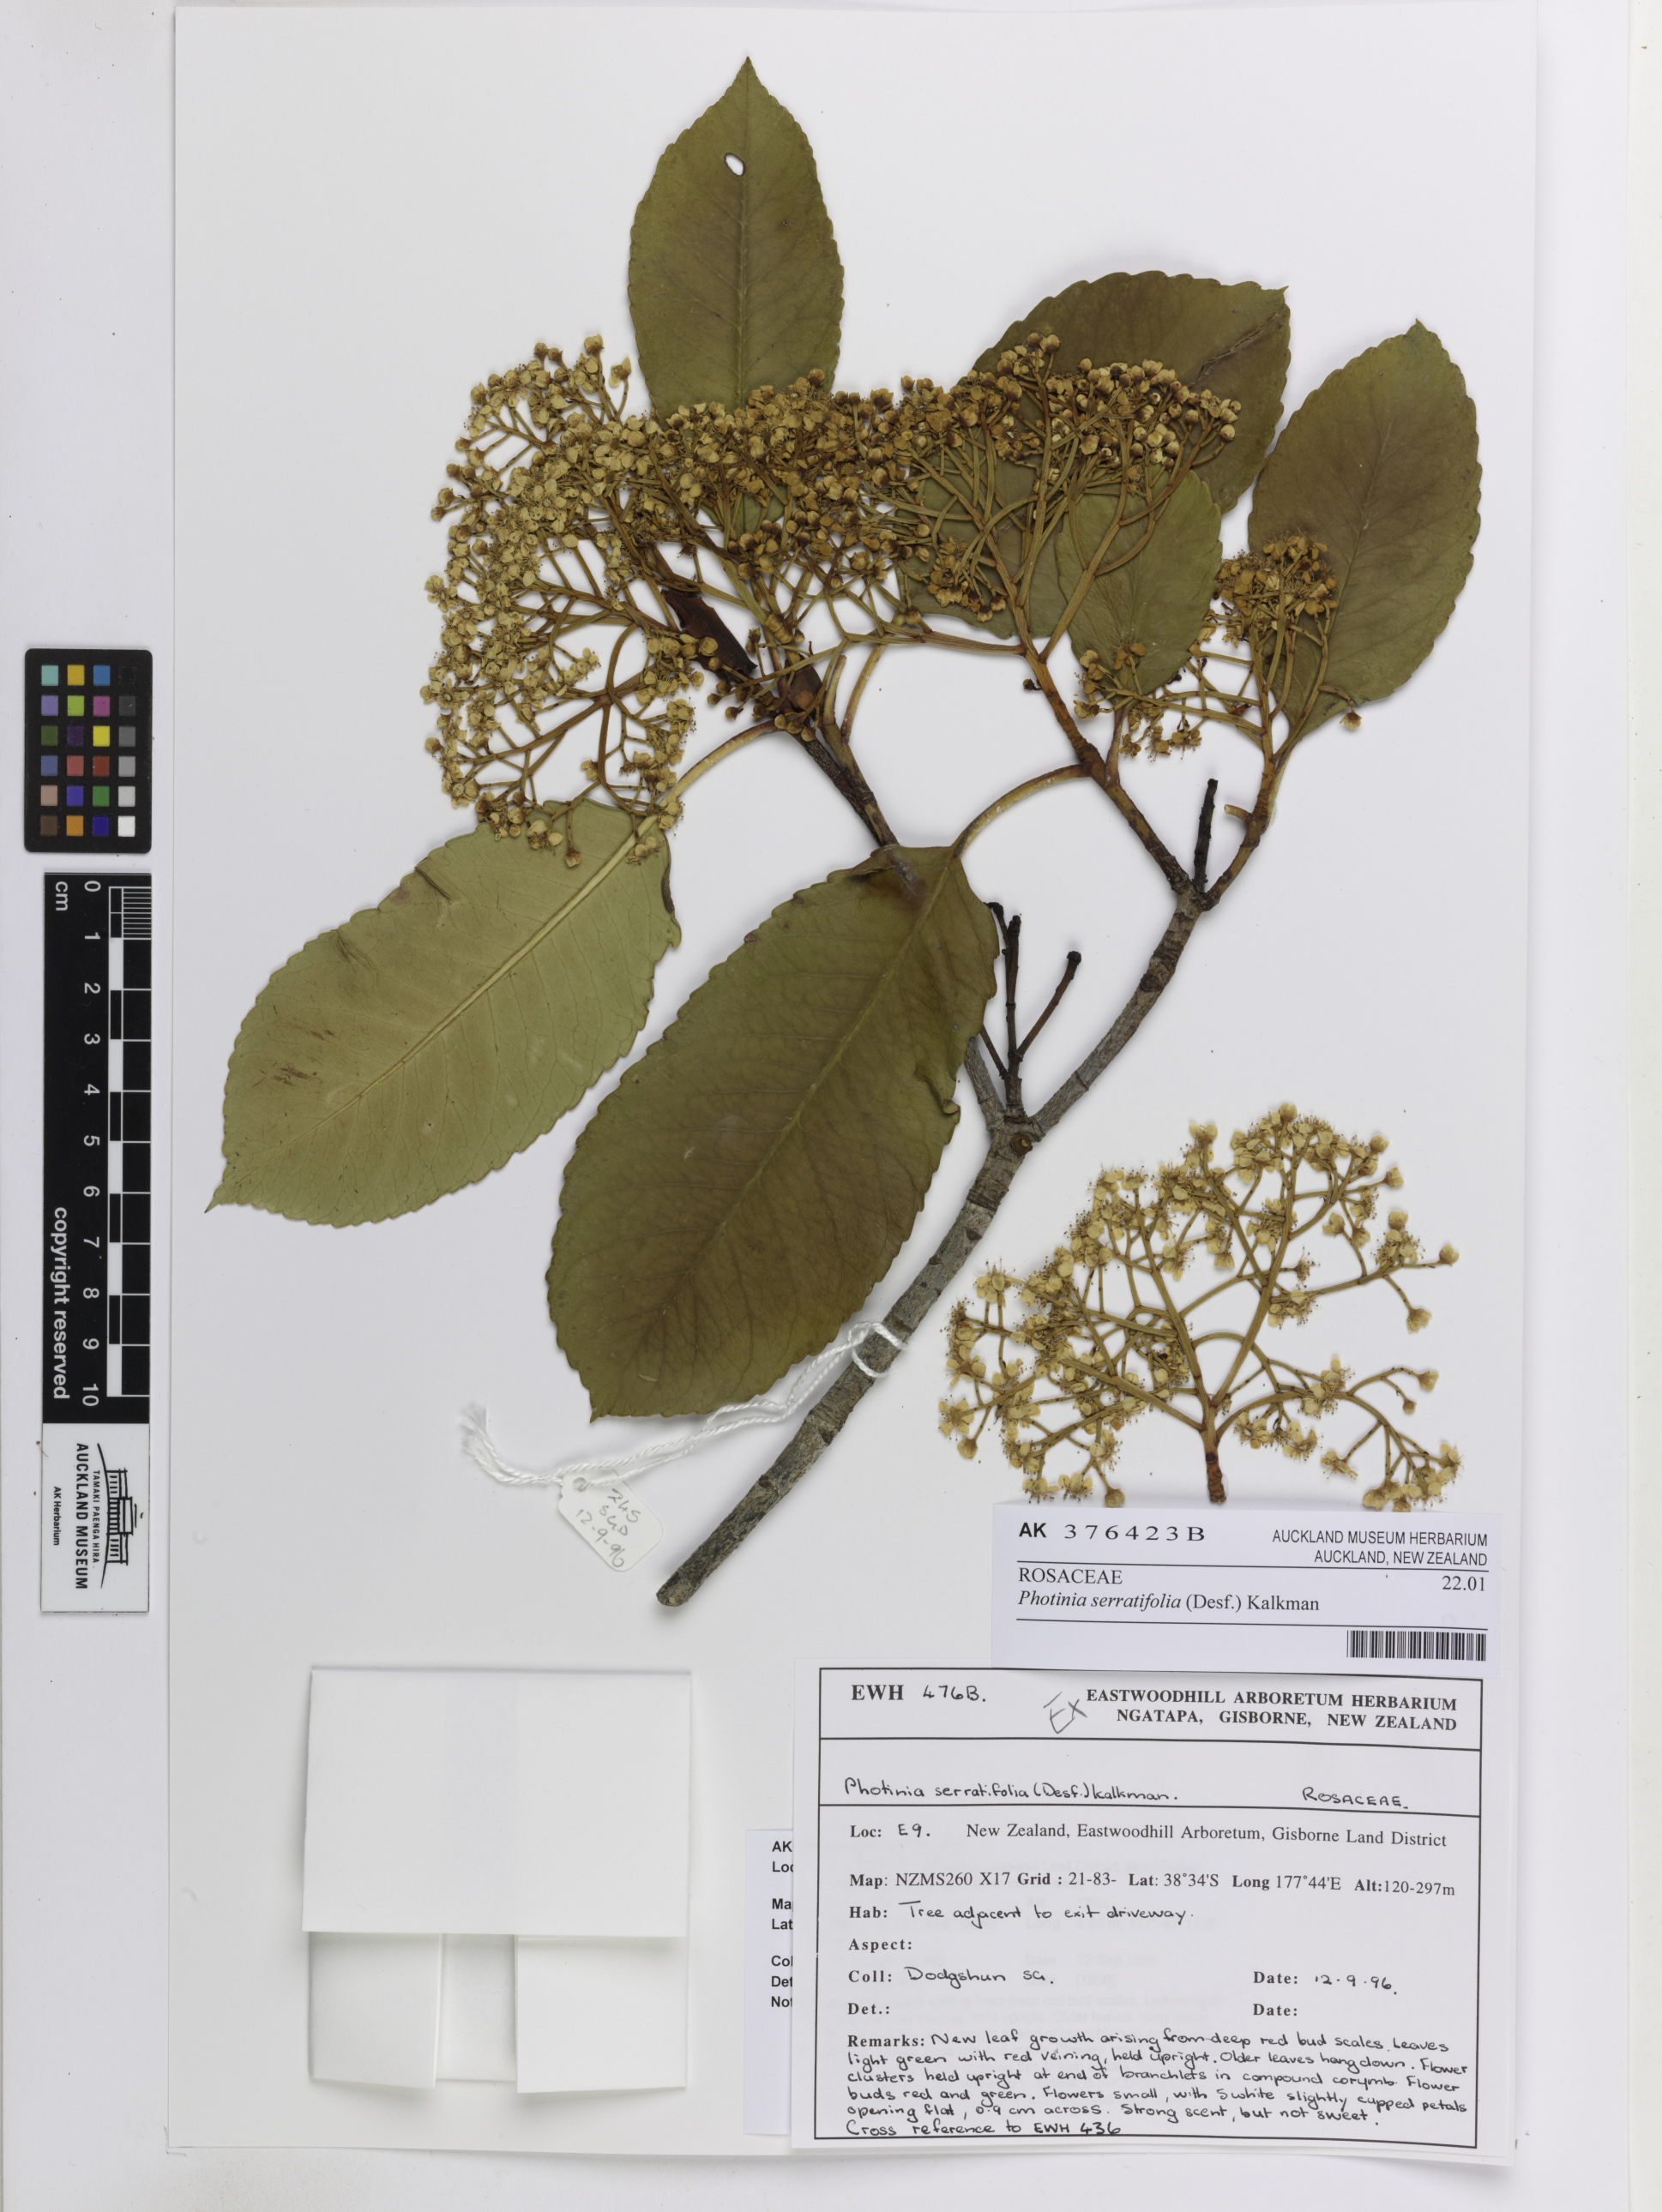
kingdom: Plantae
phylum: Tracheophyta
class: Magnoliopsida
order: Rosales
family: Rosaceae
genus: Photinia
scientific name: Photinia serratifolia
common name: Taiwanese photinia
